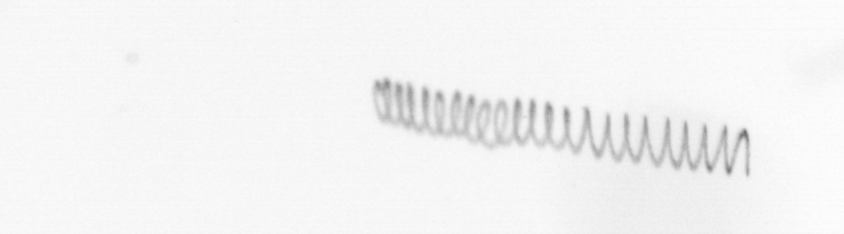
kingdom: Chromista
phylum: Ochrophyta
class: Bacillariophyceae
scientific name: Bacillariophyceae
